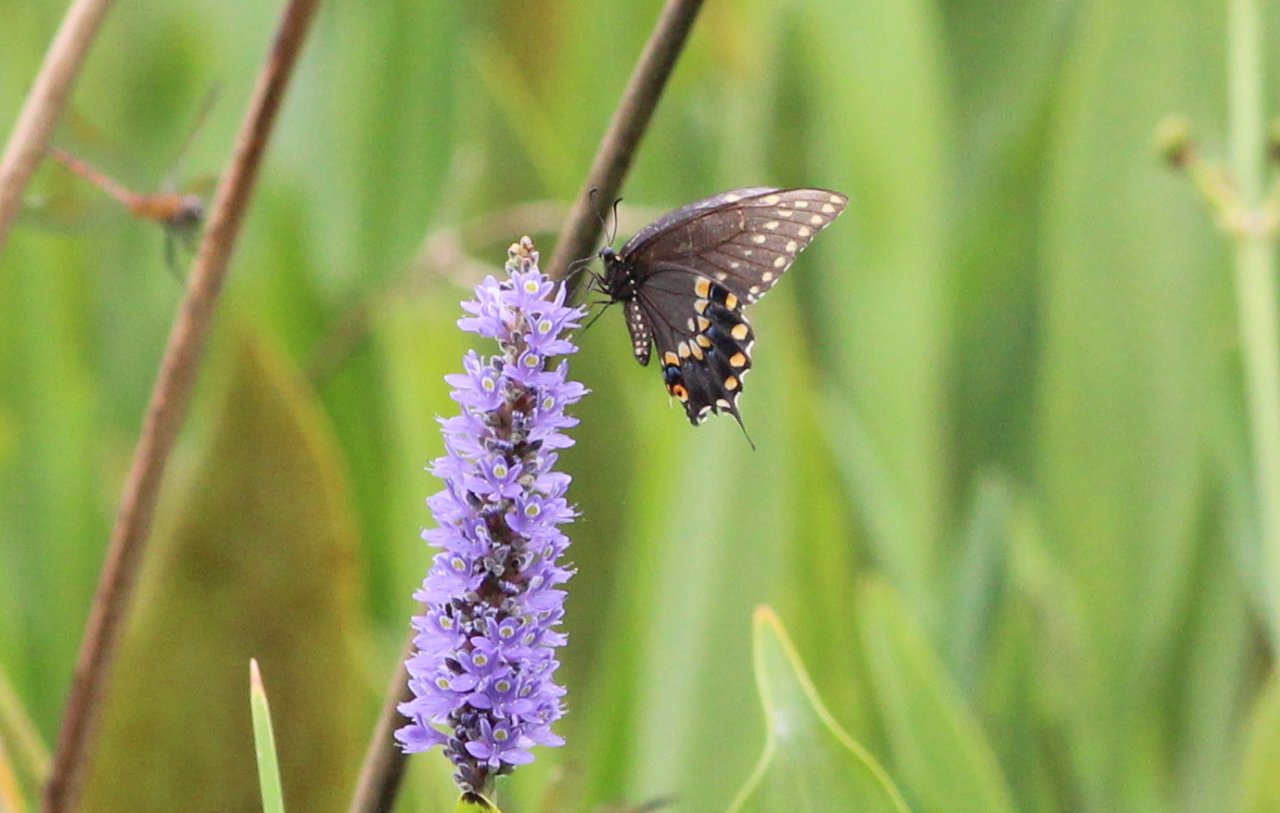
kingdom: Animalia
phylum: Arthropoda
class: Insecta
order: Lepidoptera
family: Papilionidae
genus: Papilio
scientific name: Papilio polyxenes
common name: Black Swallowtail
